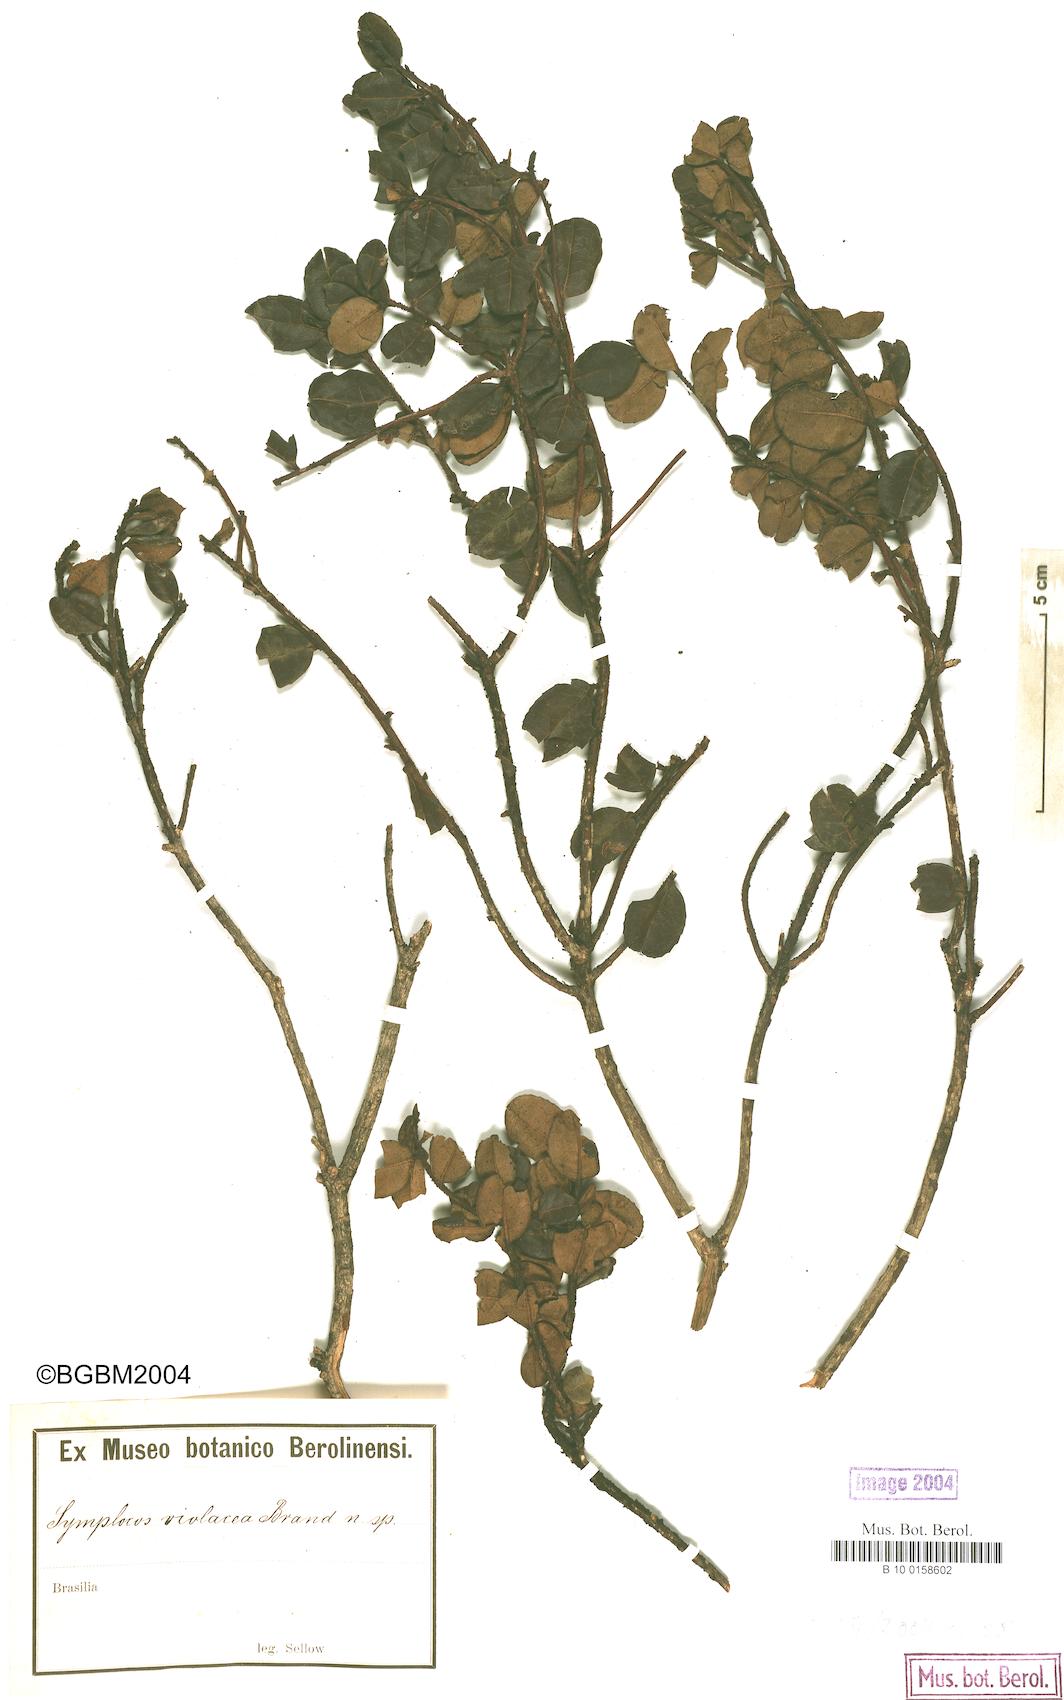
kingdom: Plantae
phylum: Tracheophyta
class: Magnoliopsida
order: Ericales
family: Symplocaceae
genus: Symplocos
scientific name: Symplocos violacea
